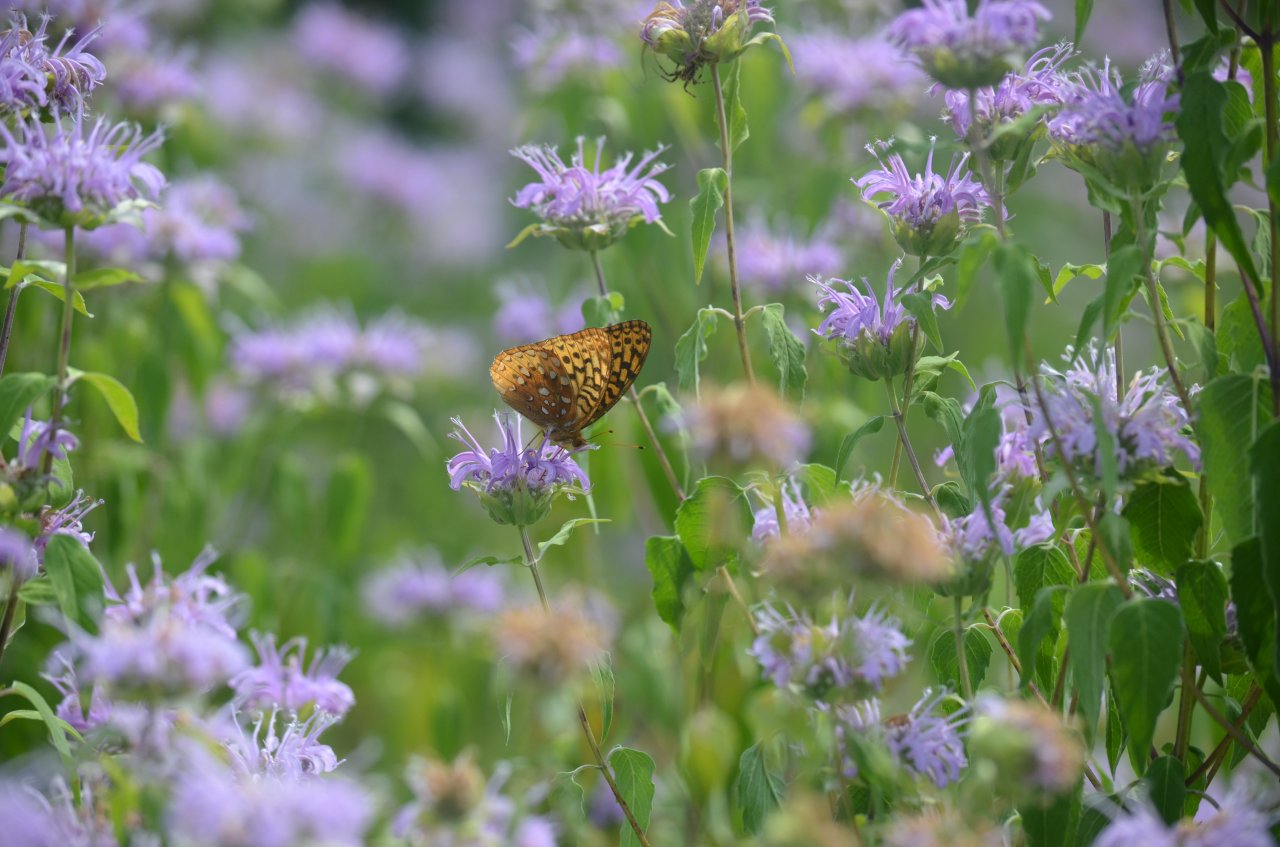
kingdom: Animalia
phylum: Arthropoda
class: Insecta
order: Lepidoptera
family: Nymphalidae
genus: Speyeria
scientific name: Speyeria cybele
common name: Great Spangled Fritillary
